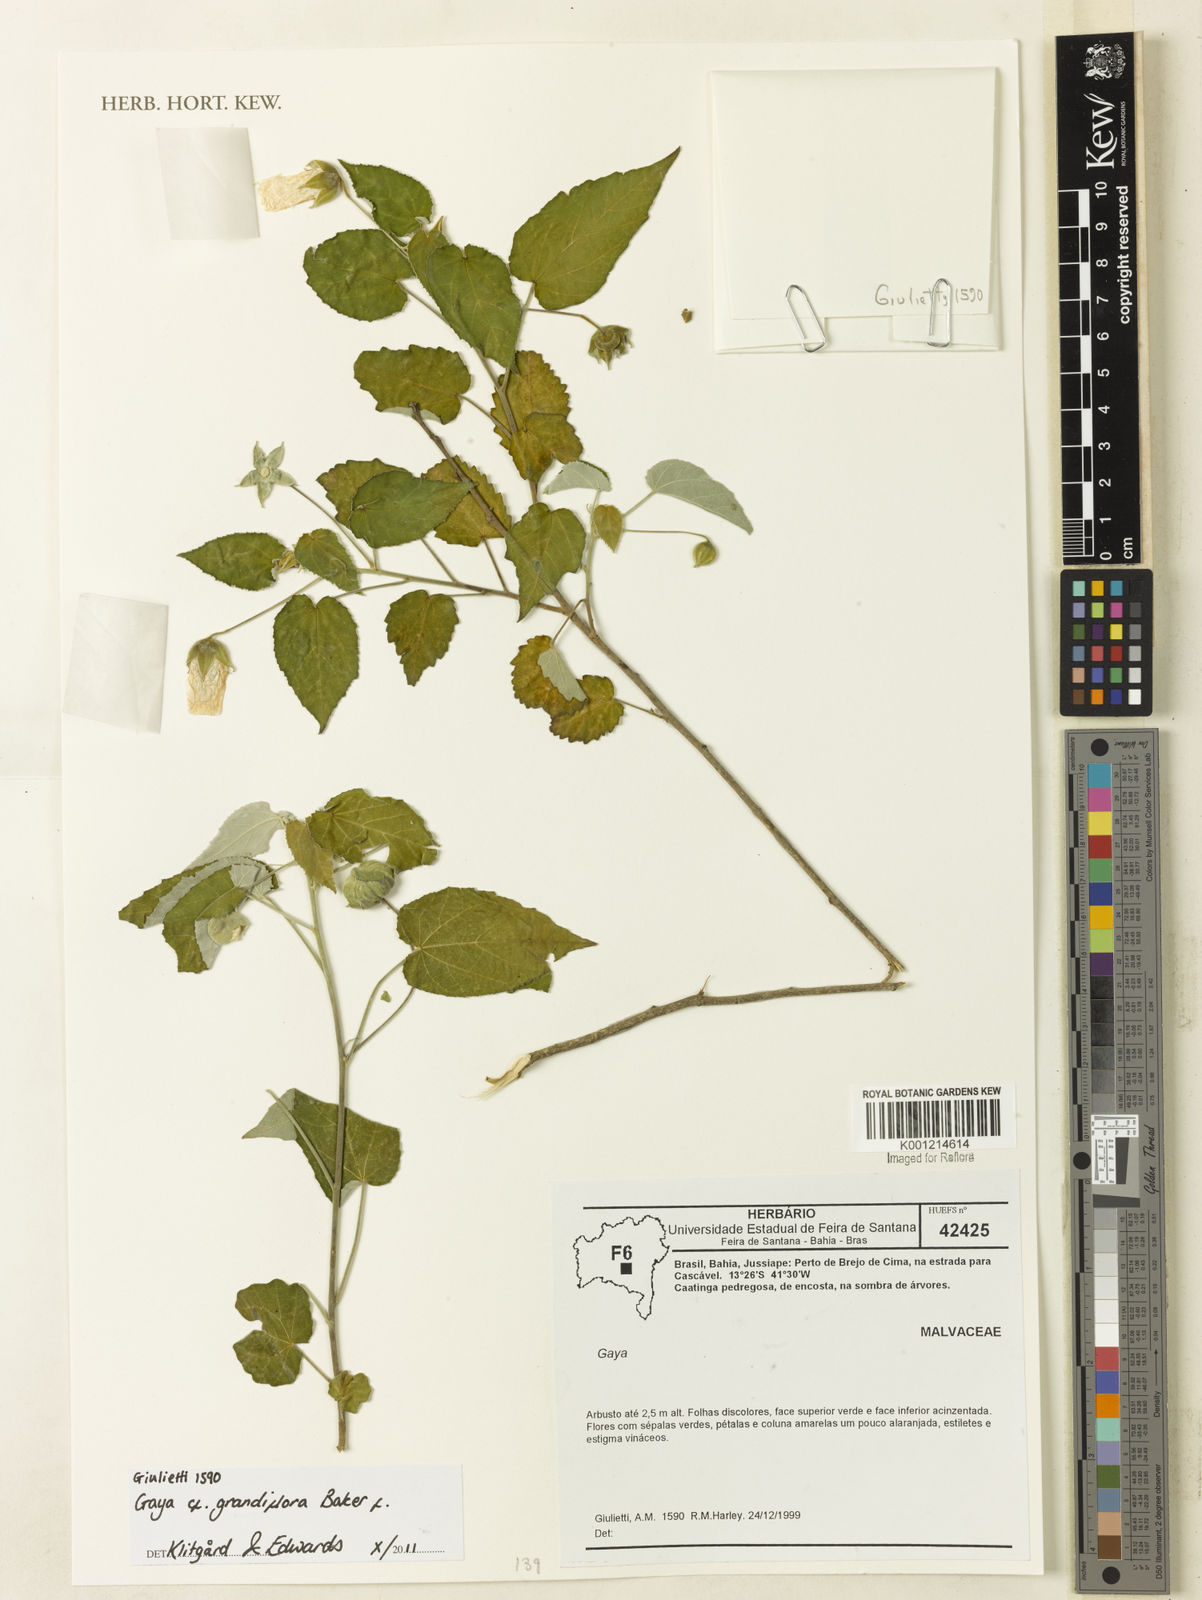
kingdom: Plantae
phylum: Tracheophyta
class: Magnoliopsida
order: Malvales
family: Malvaceae
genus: Gaya
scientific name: Gaya grandiflora
